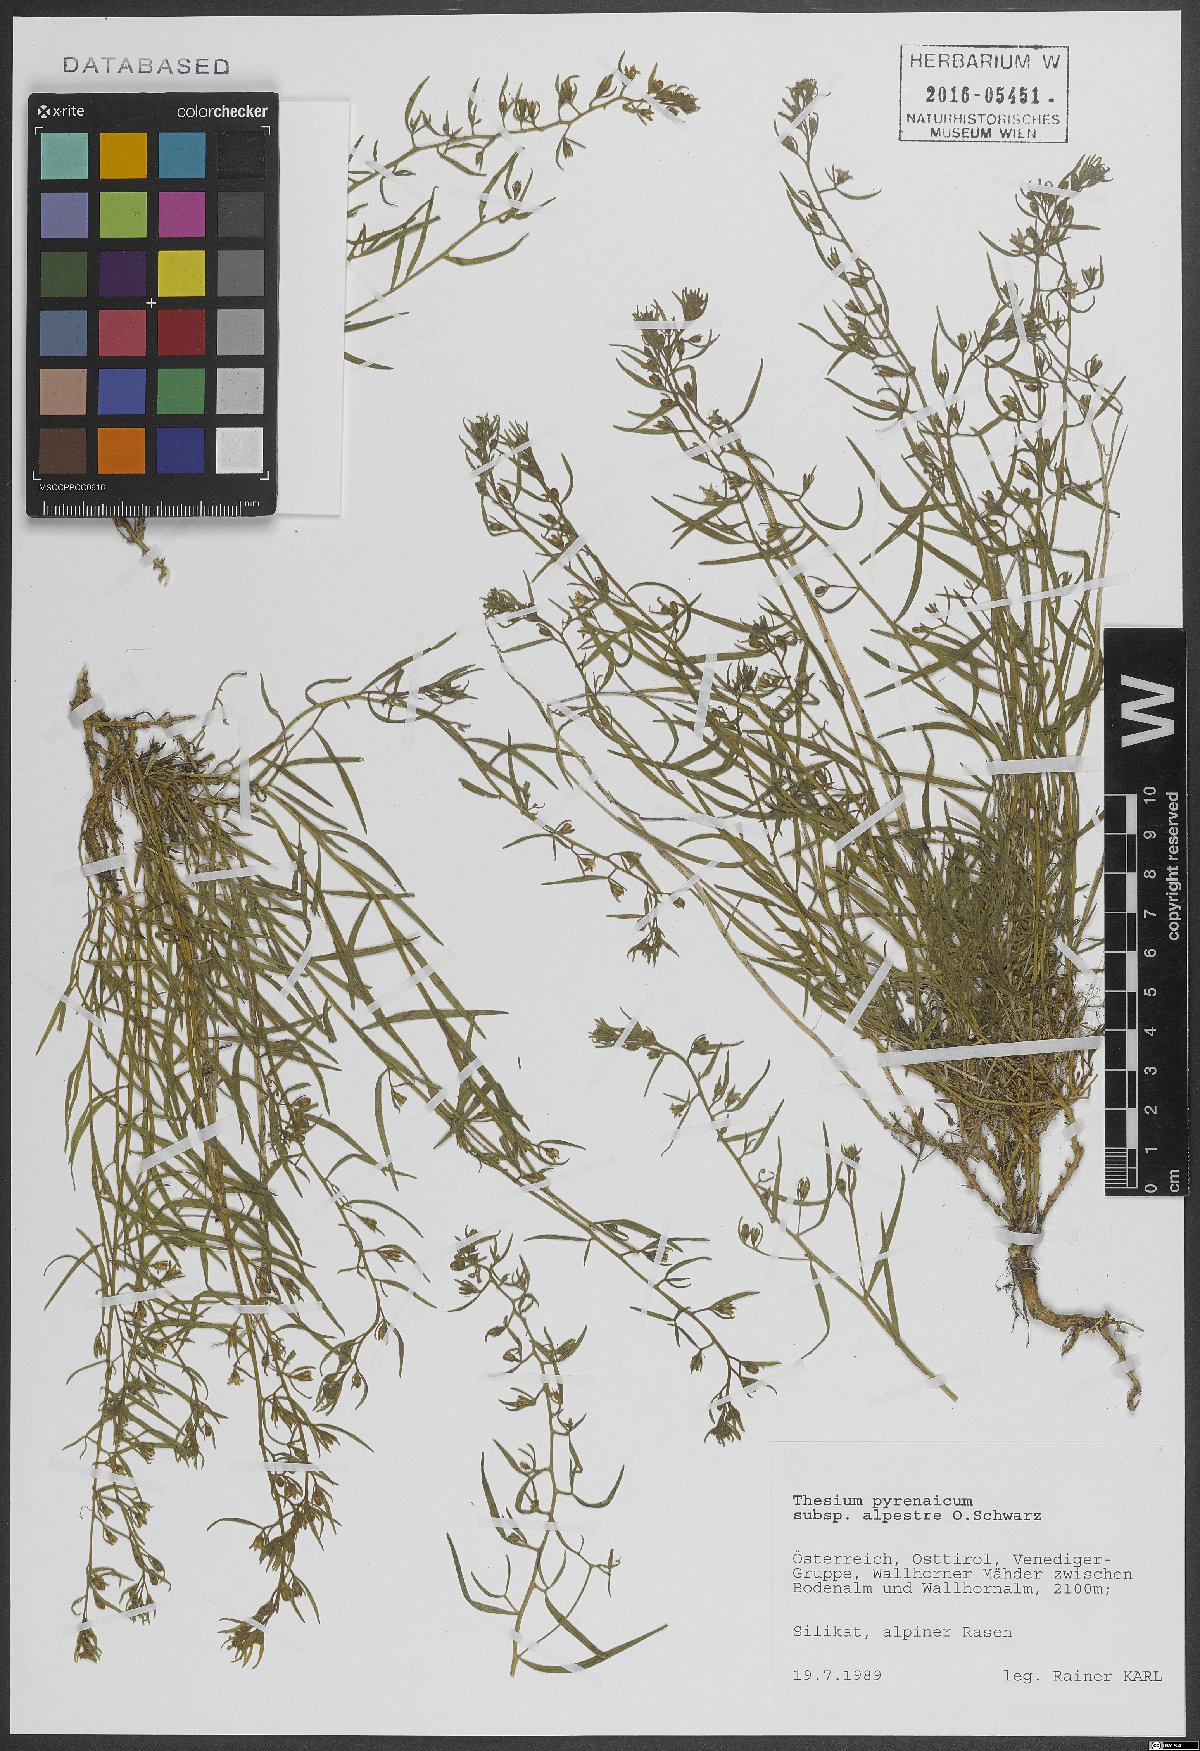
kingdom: Plantae
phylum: Tracheophyta
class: Magnoliopsida
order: Santalales
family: Thesiaceae
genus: Thesium
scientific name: Thesium pyrenaicum
